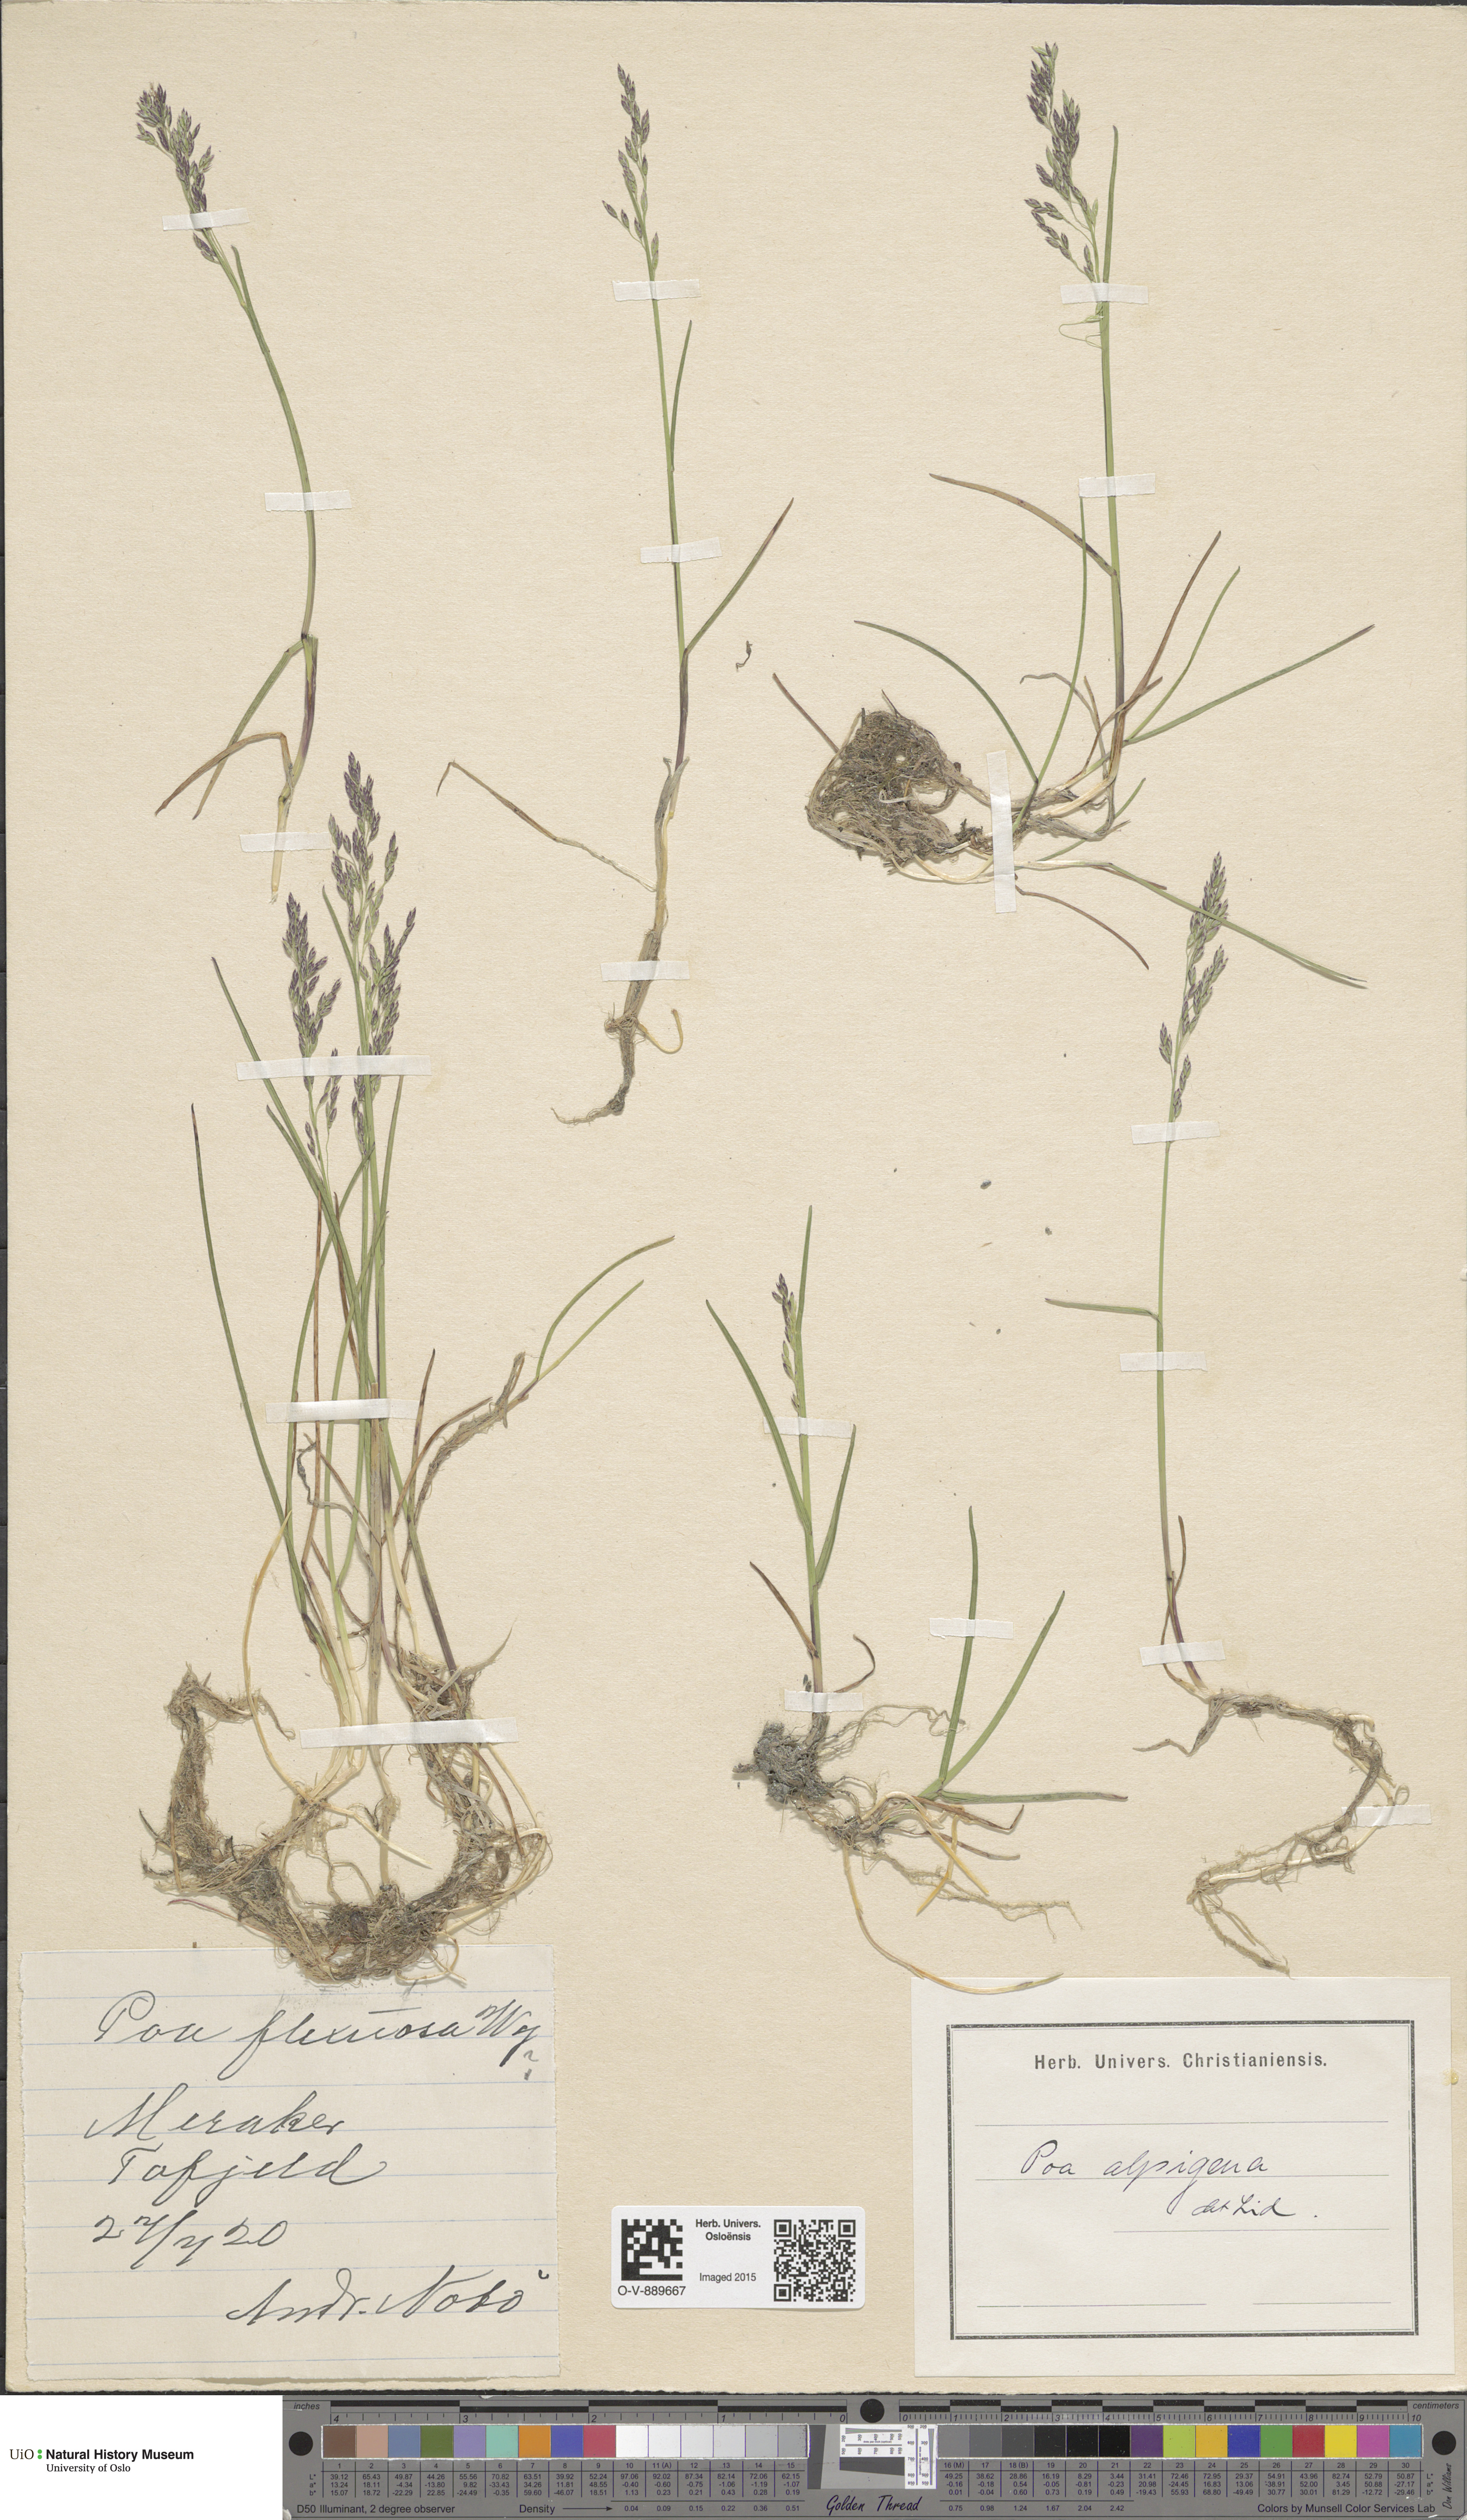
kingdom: Plantae
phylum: Tracheophyta
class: Liliopsida
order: Poales
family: Poaceae
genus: Poa
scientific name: Poa alpigena
